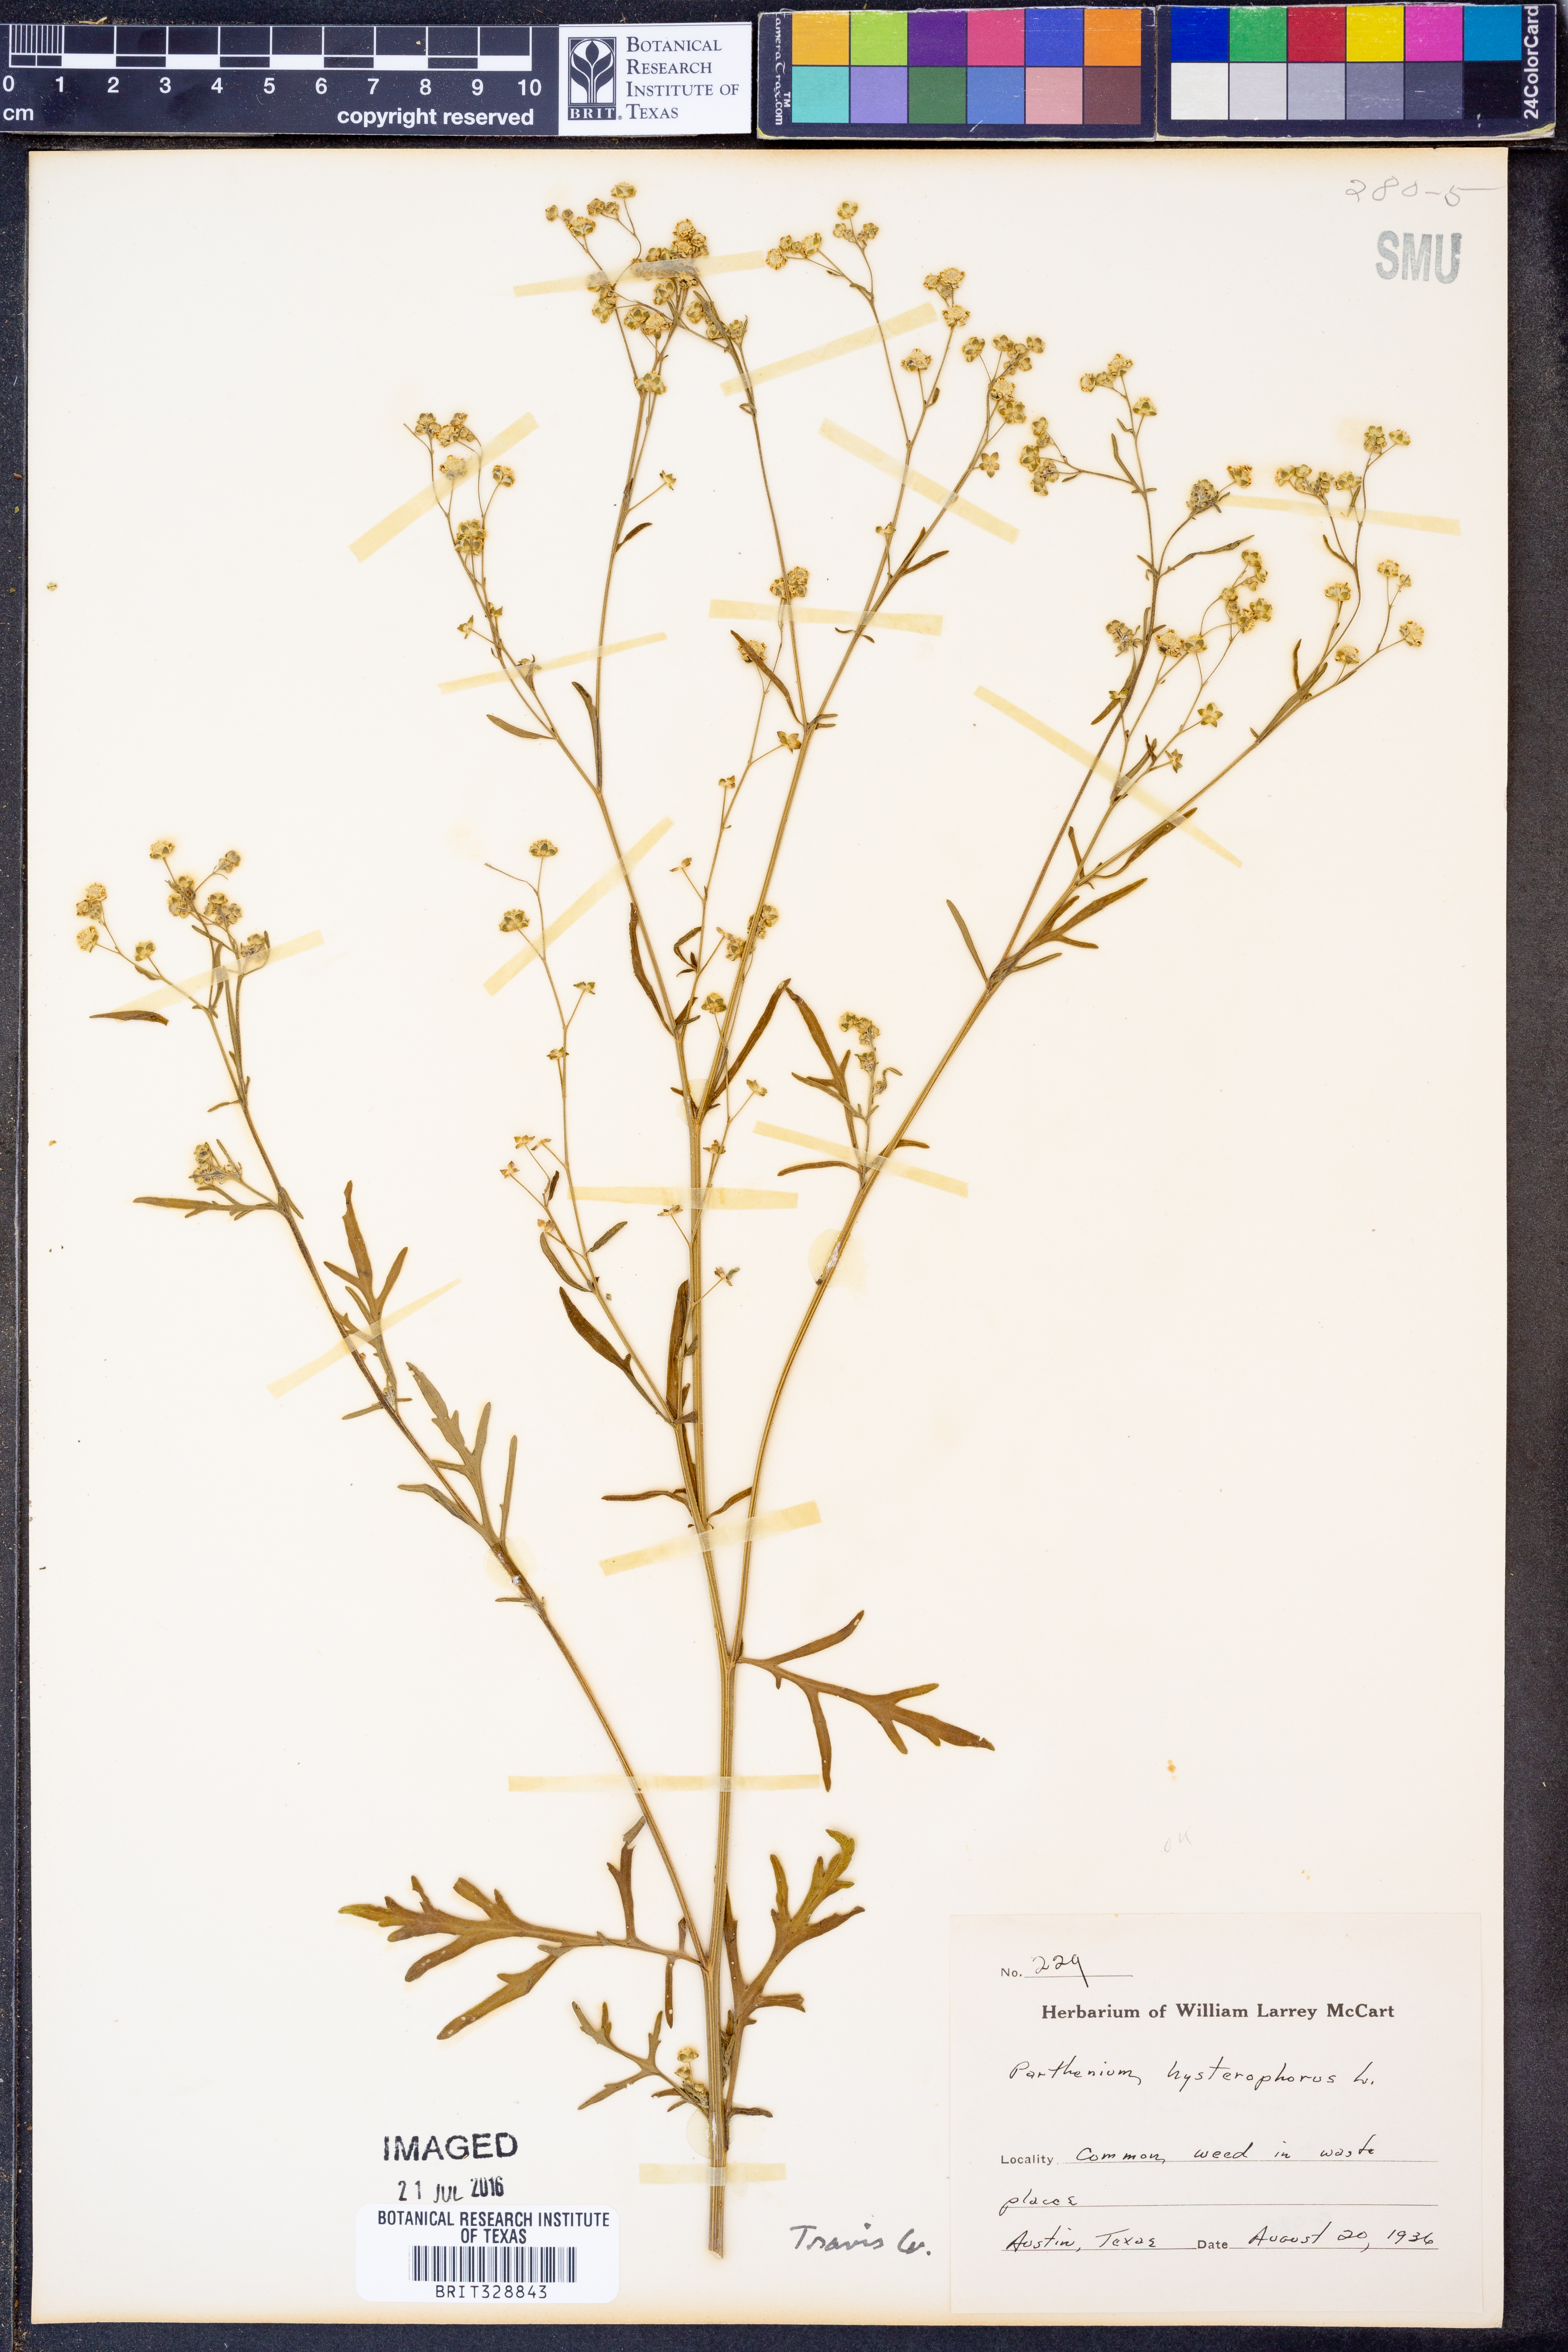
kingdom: Plantae
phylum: Tracheophyta
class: Magnoliopsida
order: Asterales
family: Asteraceae
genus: Parthenium
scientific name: Parthenium hysterophorus
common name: Santa maria feverfew
